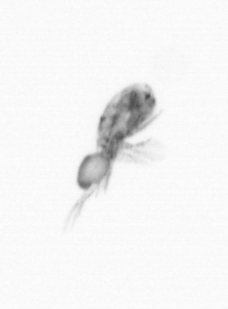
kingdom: Animalia
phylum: Arthropoda
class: Copepoda
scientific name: Copepoda
